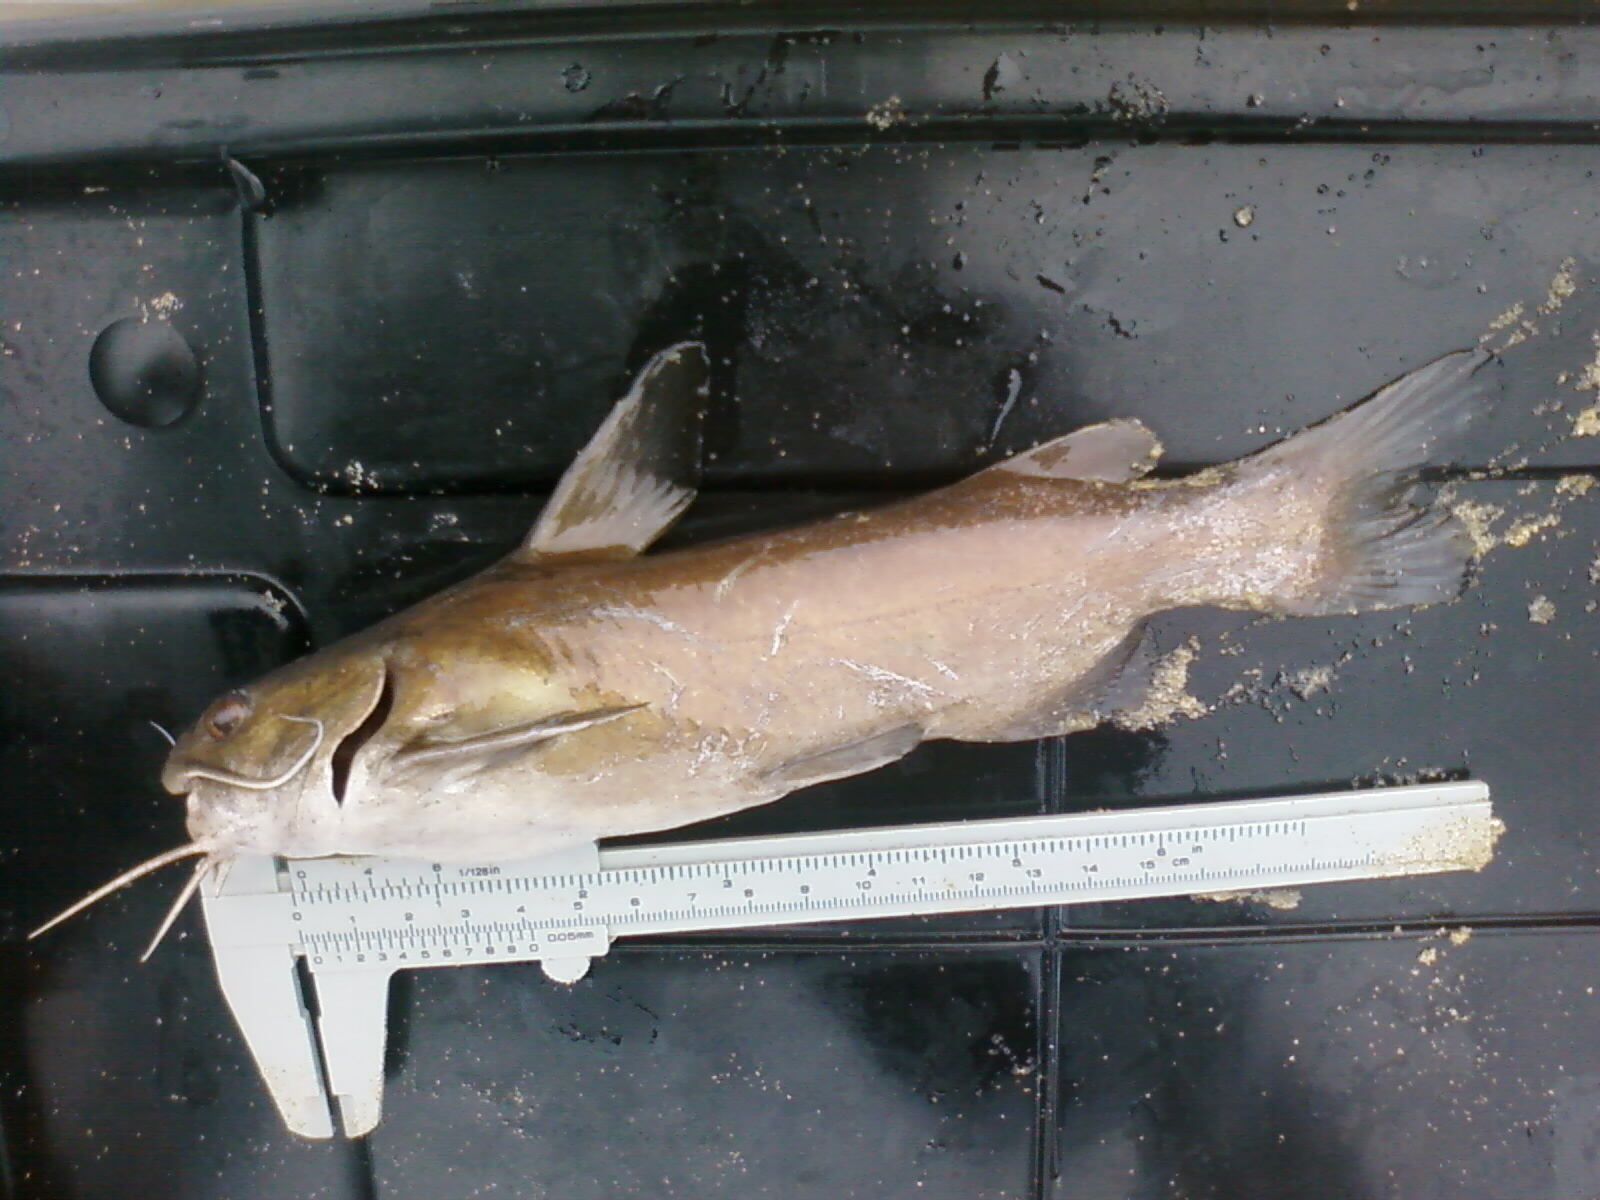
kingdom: Animalia
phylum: Chordata
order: Siluriformes
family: Ariidae
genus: Galeichthys
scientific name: Galeichthys ater
